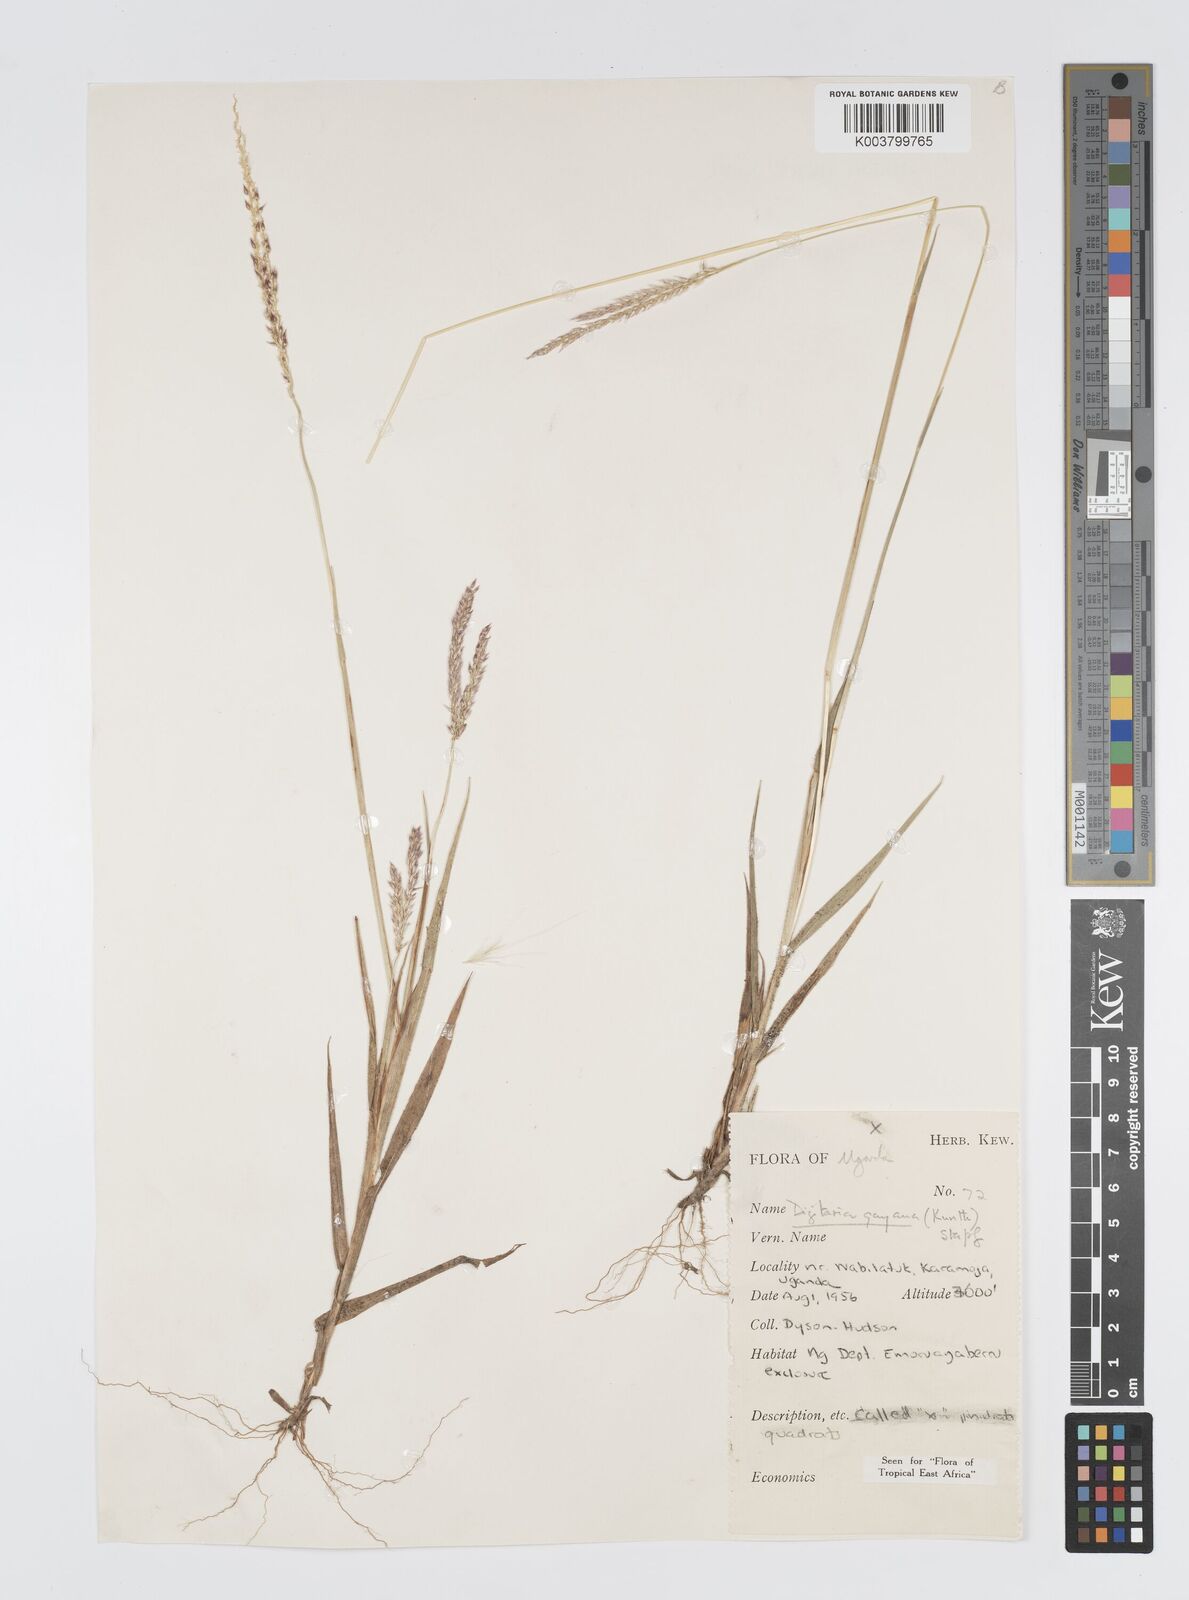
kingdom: Plantae
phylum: Tracheophyta
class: Liliopsida
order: Poales
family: Poaceae
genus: Digitaria
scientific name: Digitaria gayana
